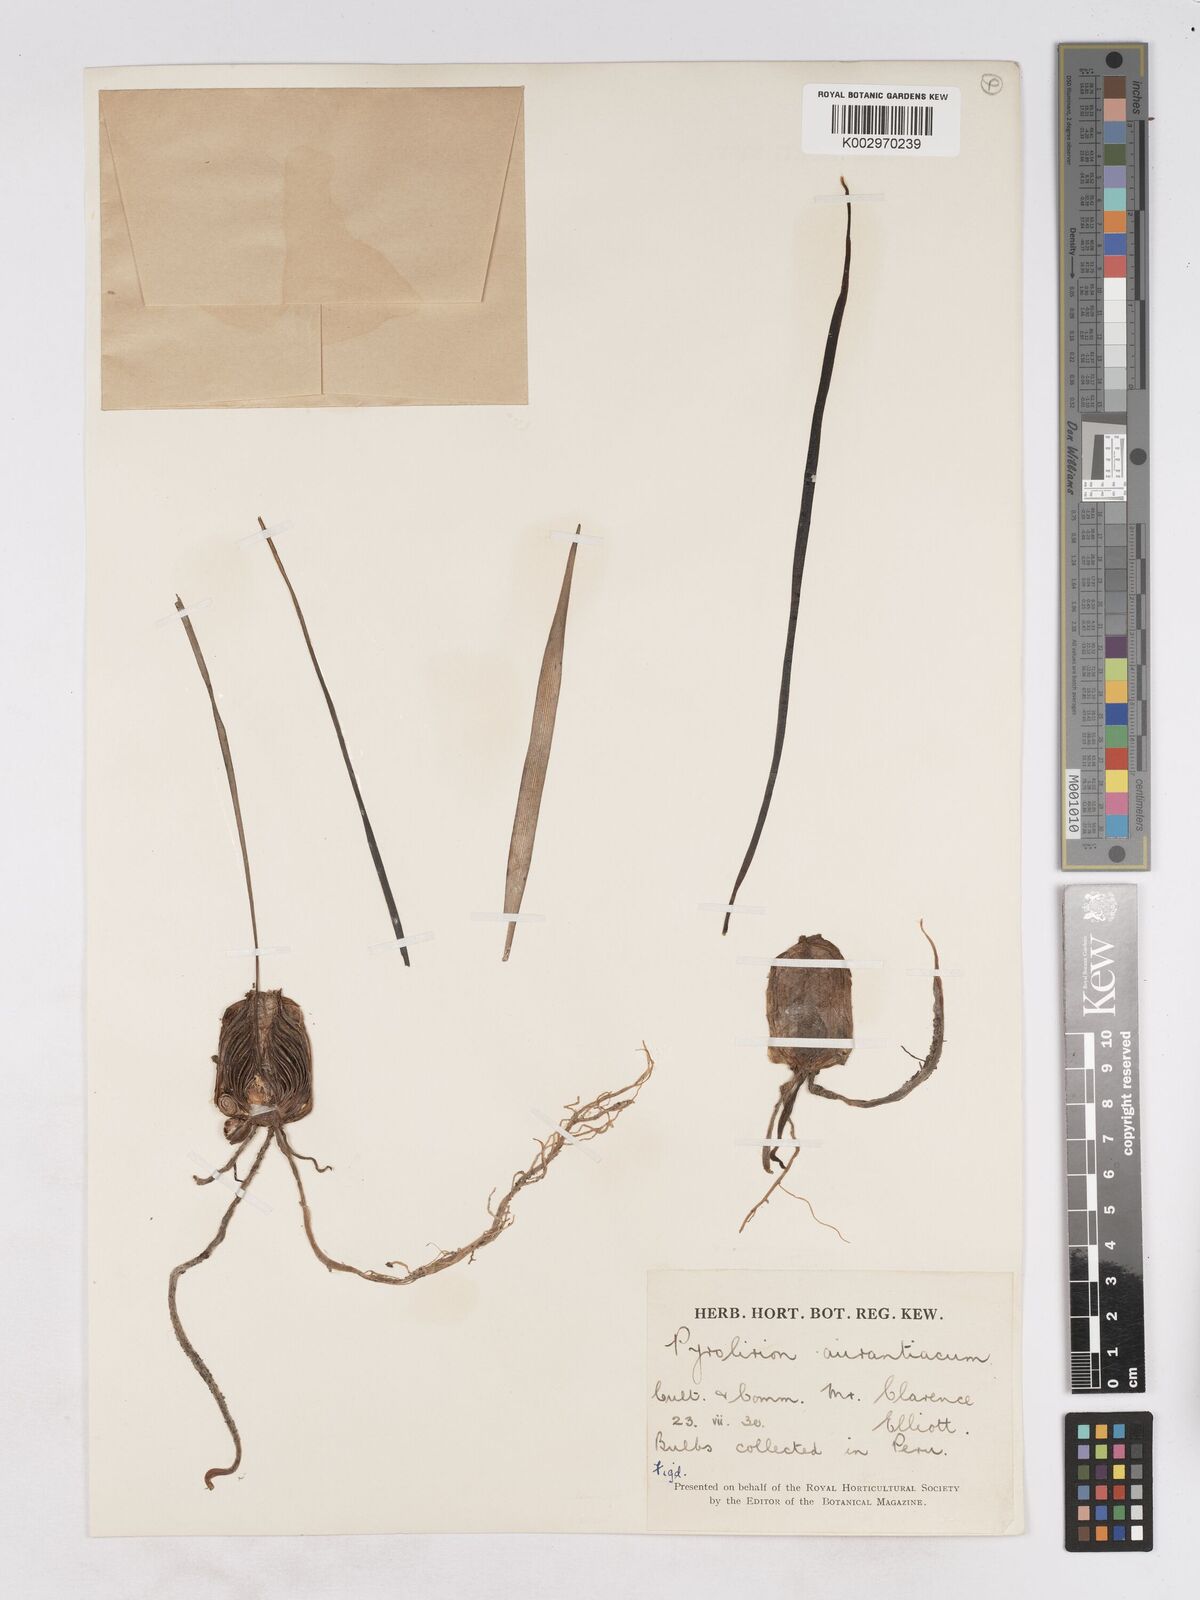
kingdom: Plantae
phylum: Tracheophyta
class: Liliopsida
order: Asparagales
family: Amaryllidaceae
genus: Pyrolirion
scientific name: Pyrolirion arvense
